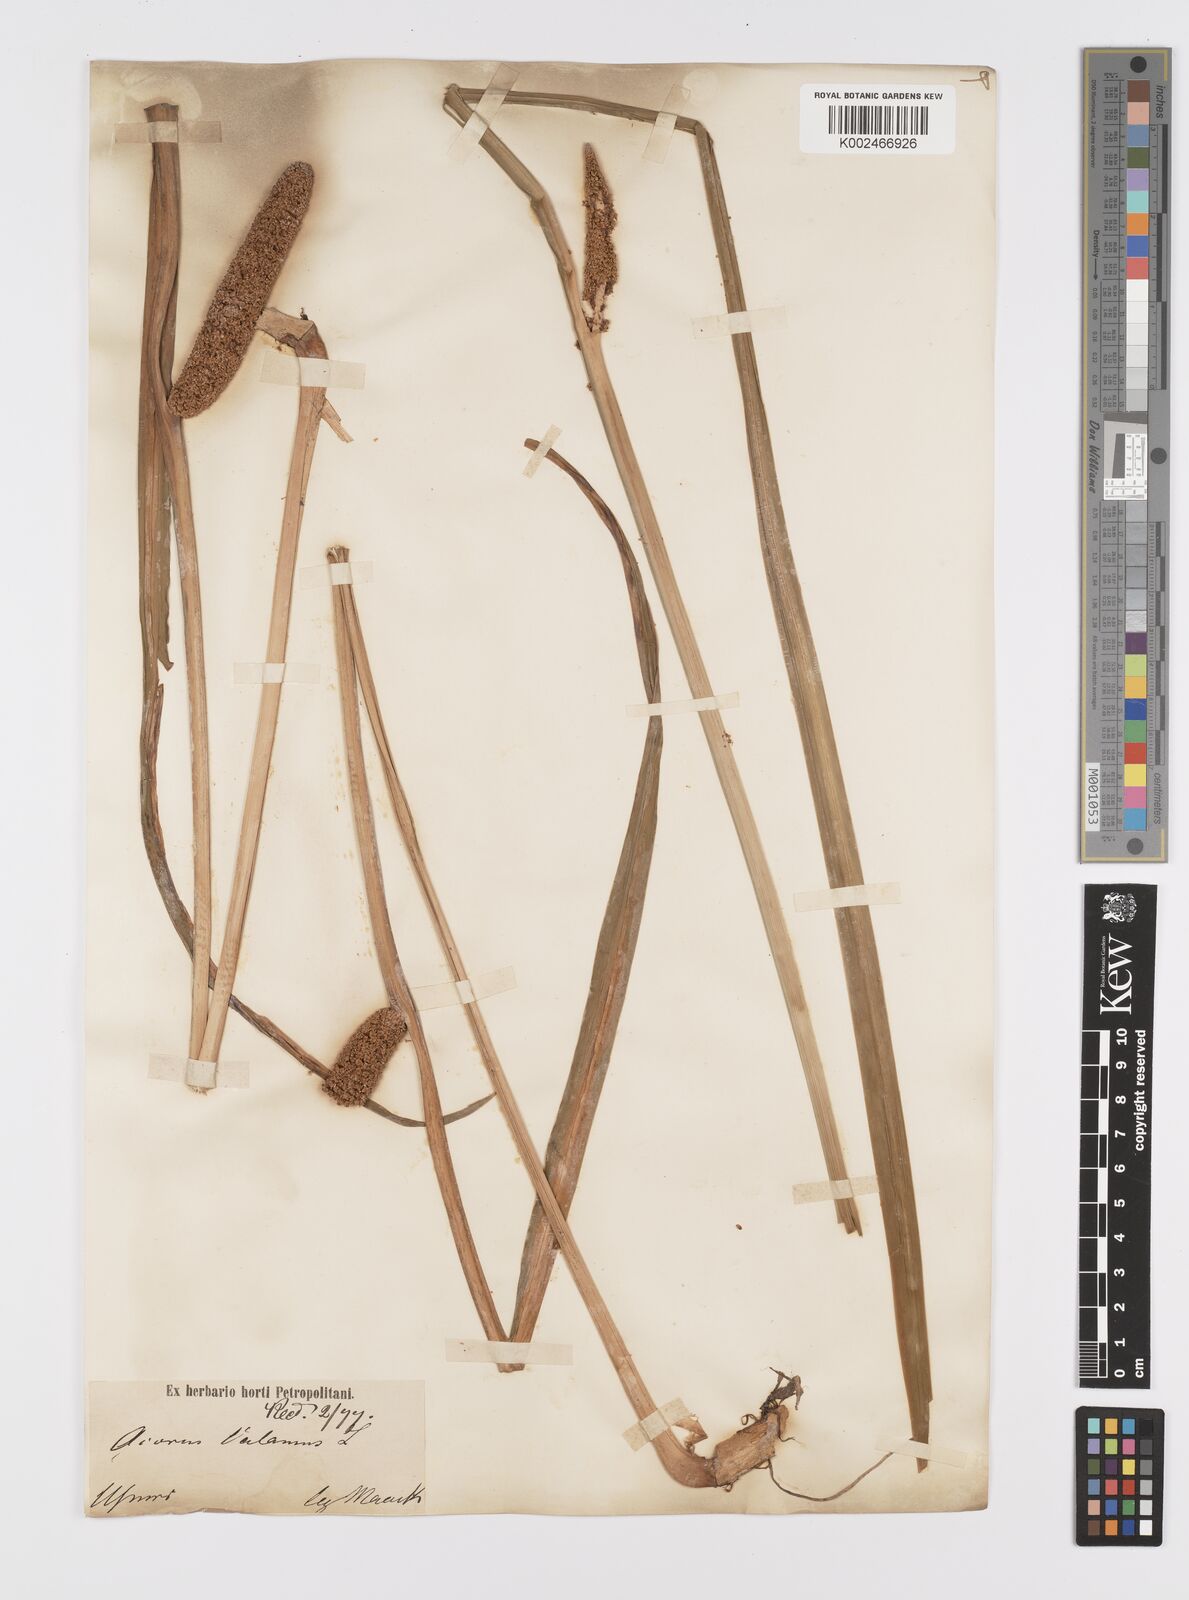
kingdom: Plantae
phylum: Tracheophyta
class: Liliopsida
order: Acorales
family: Acoraceae
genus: Acorus
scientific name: Acorus calamus
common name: Sweet-flag
